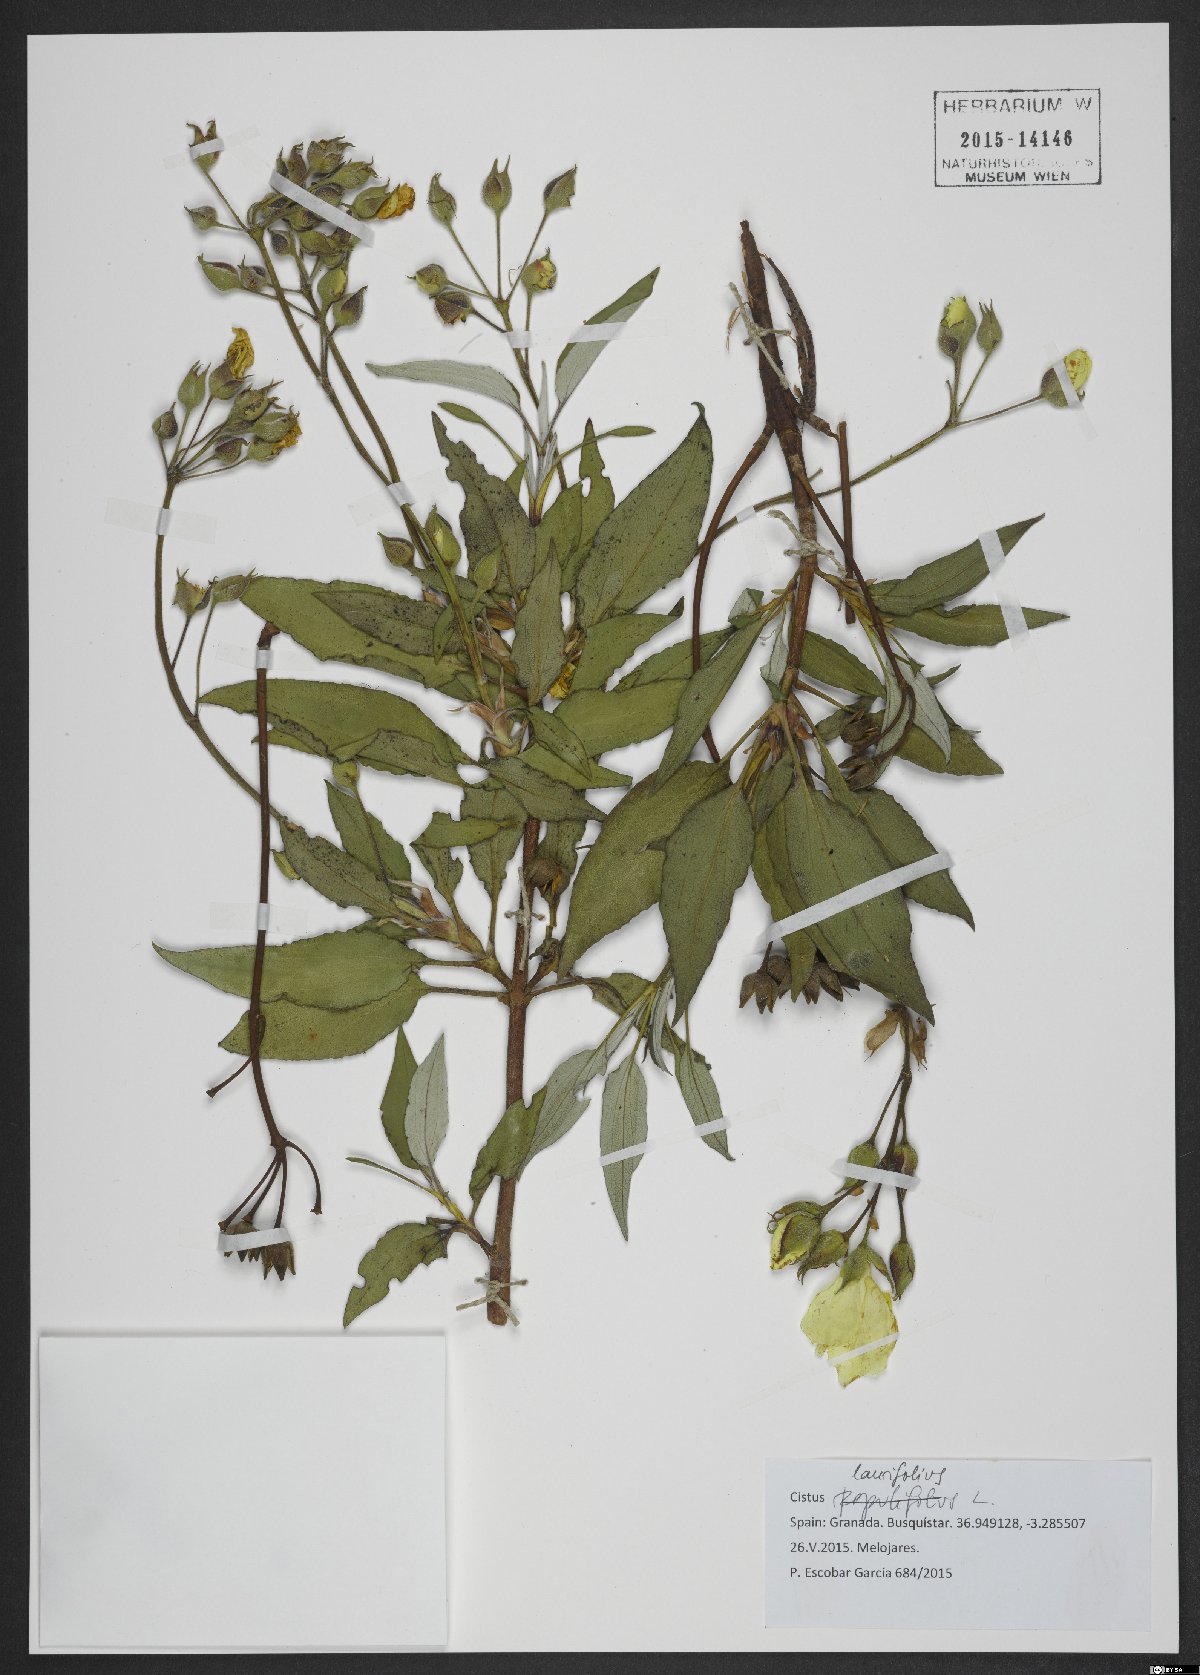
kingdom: Plantae
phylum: Tracheophyta
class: Magnoliopsida
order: Malvales
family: Cistaceae
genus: Cistus
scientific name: Cistus laurifolius
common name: Laurel-leaved cistus
